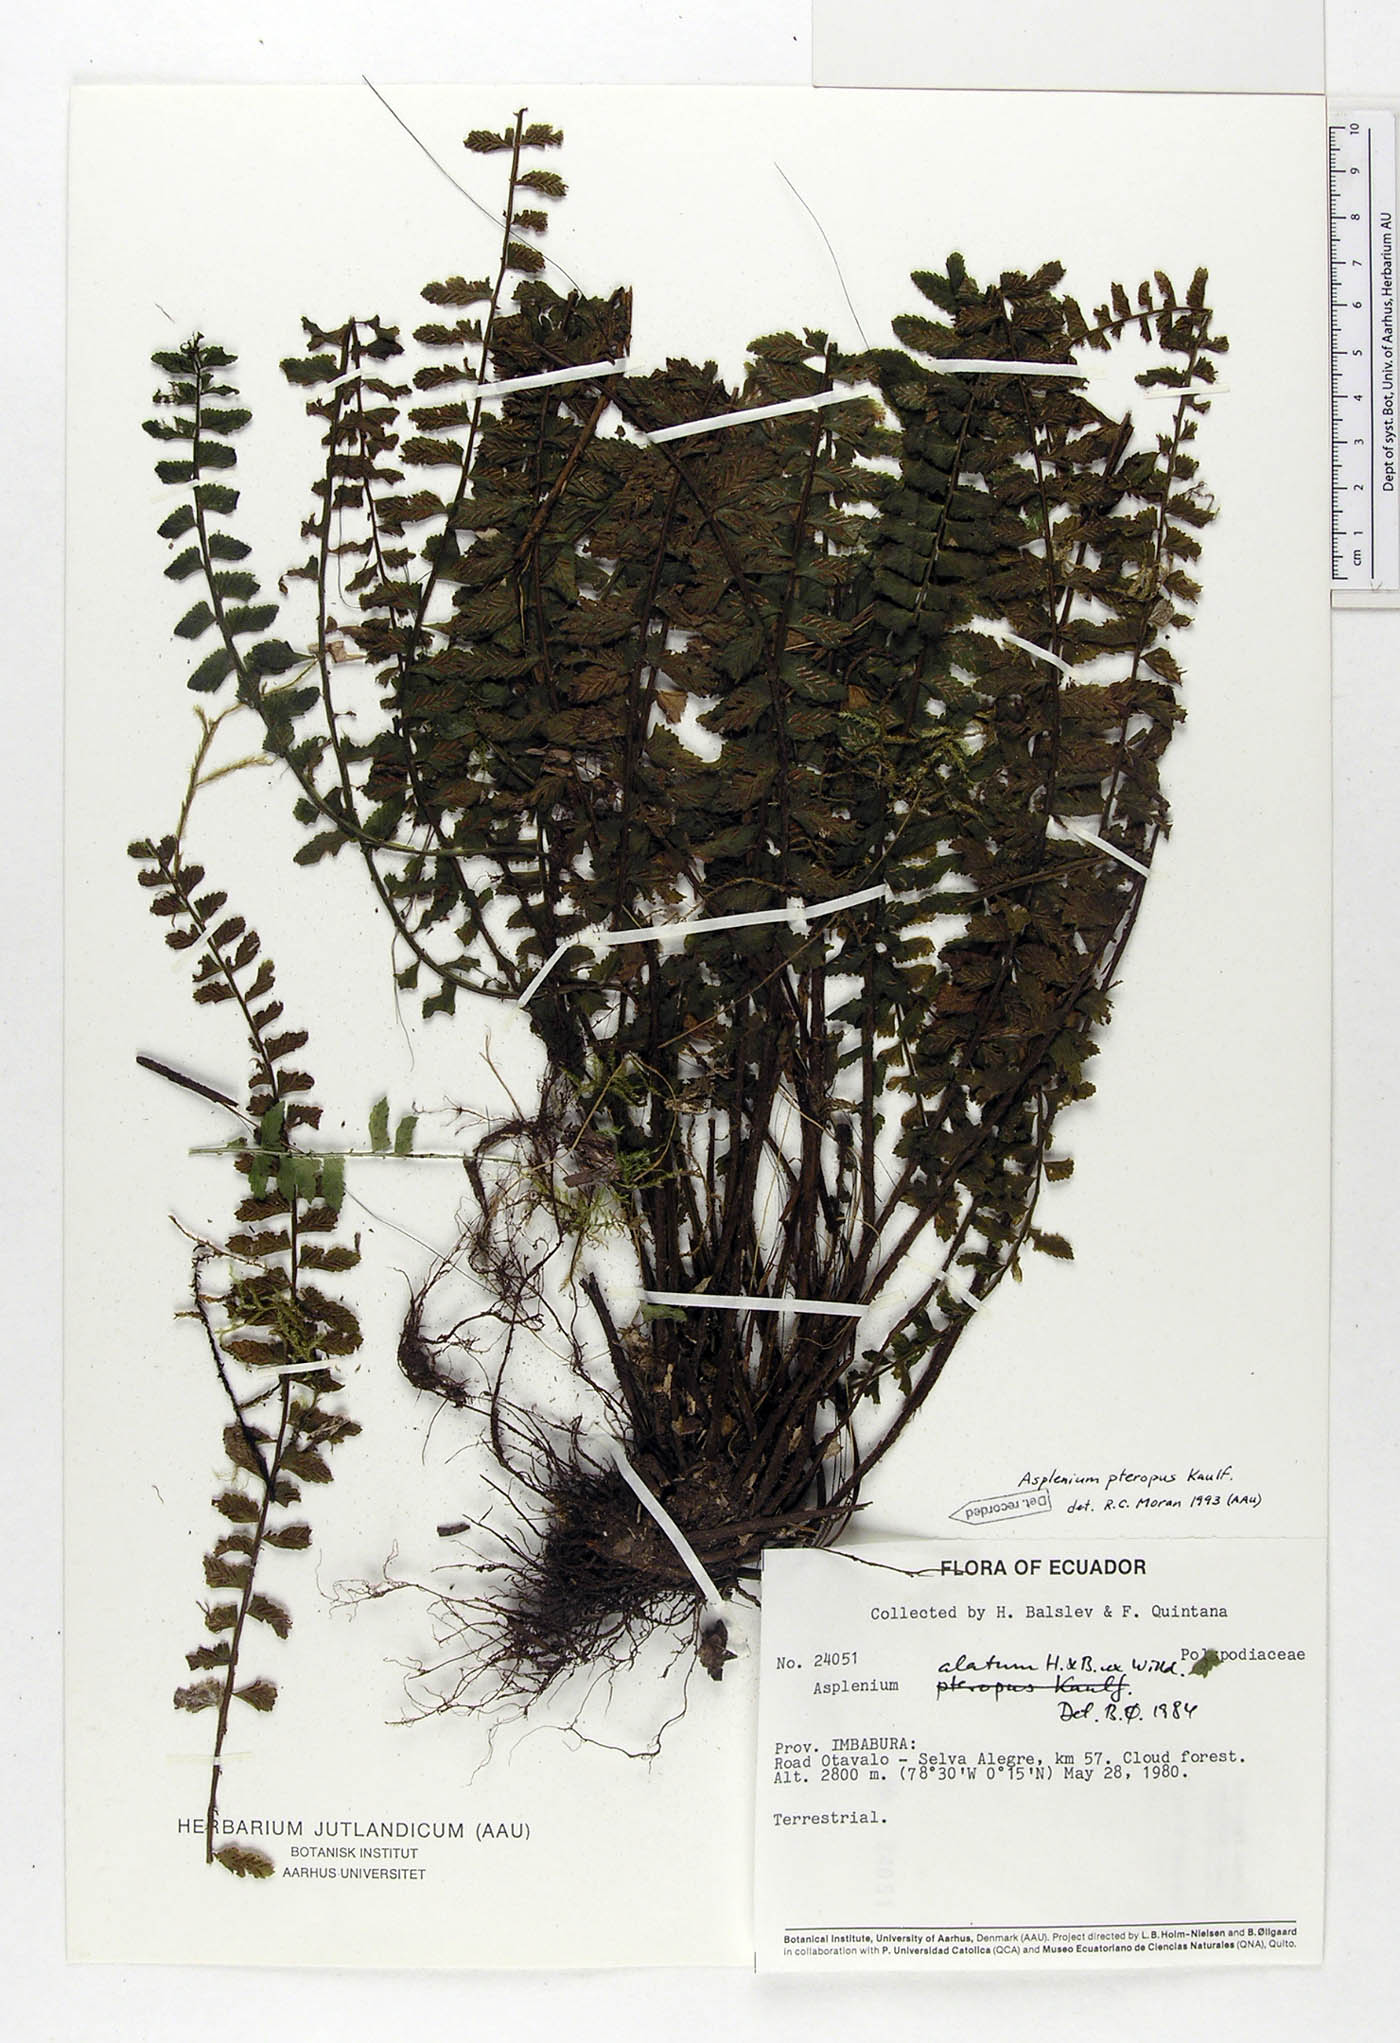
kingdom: Plantae
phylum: Tracheophyta
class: Polypodiopsida
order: Polypodiales
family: Aspleniaceae
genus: Asplenium
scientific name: Asplenium pteropus
